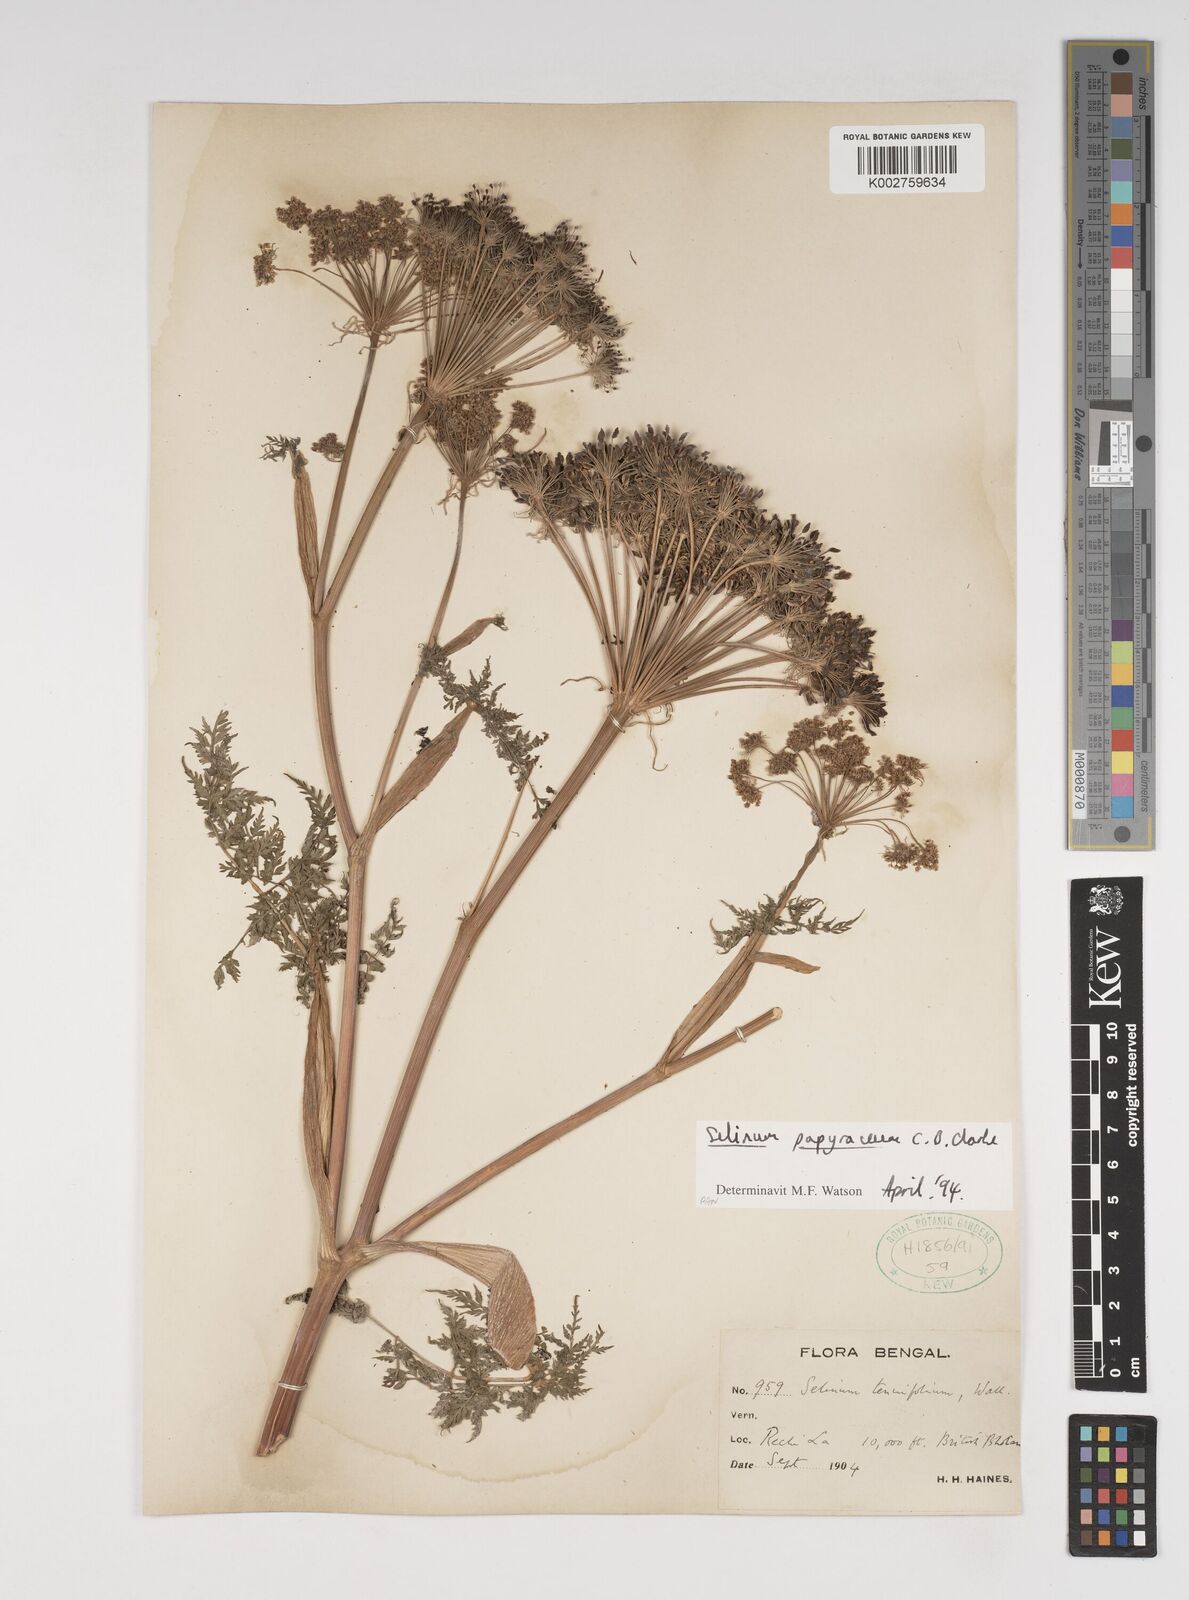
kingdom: Plantae
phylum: Tracheophyta
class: Magnoliopsida
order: Apiales
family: Apiaceae
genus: Conioselinum
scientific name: Conioselinum tataricum
